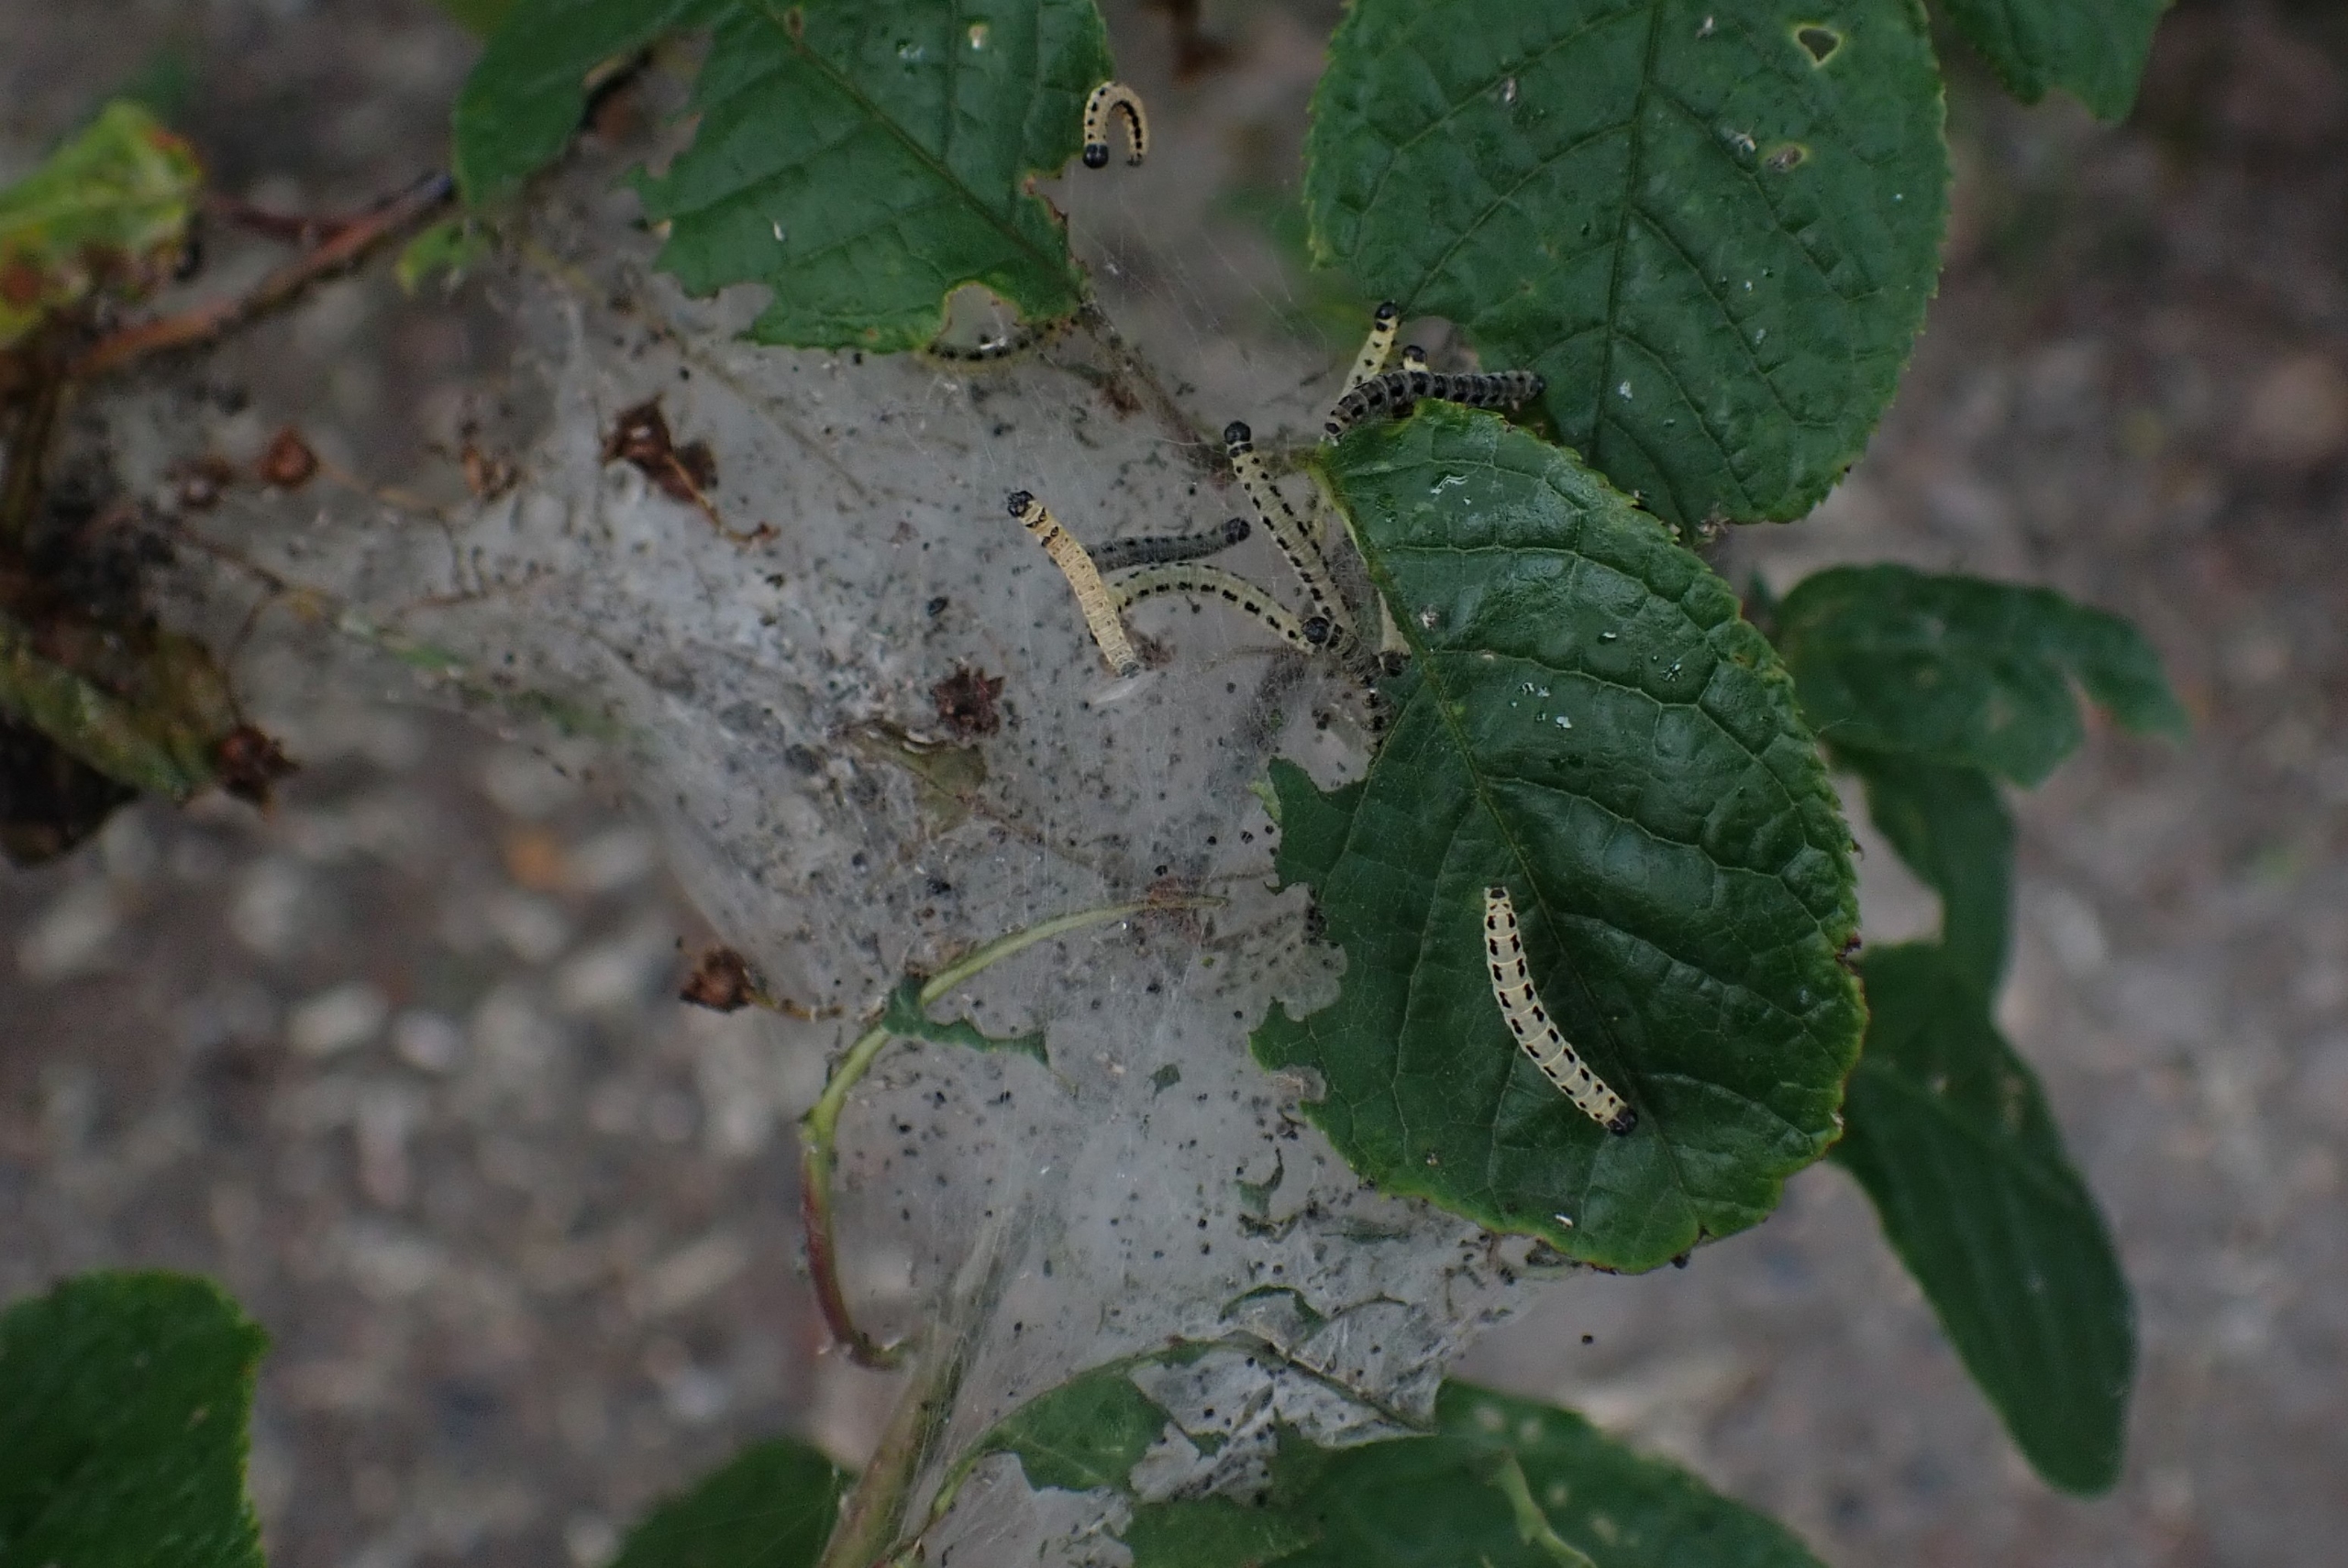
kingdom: Animalia
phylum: Arthropoda
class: Insecta
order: Lepidoptera
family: Yponomeutidae
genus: Yponomeuta
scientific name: Yponomeuta evonymella
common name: Hægspindemøl
